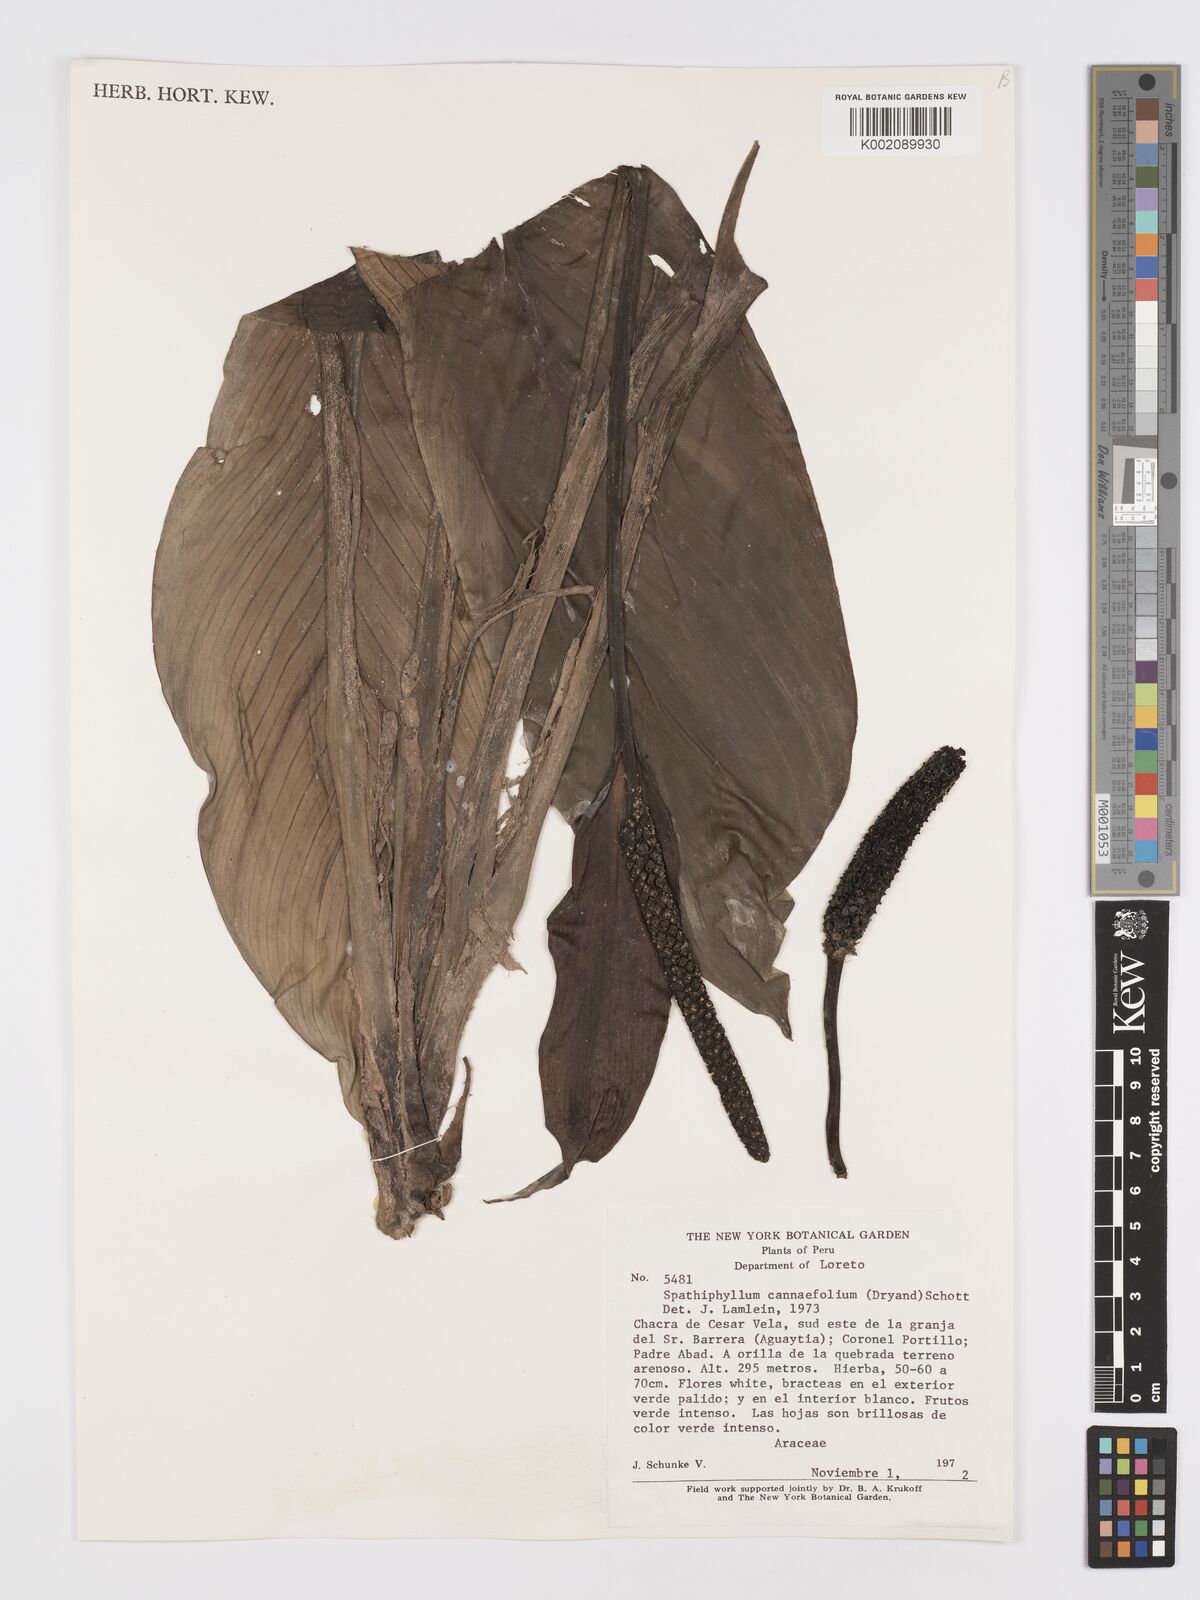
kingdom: Plantae
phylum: Tracheophyta
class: Liliopsida
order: Alismatales
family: Araceae
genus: Spathiphyllum
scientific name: Spathiphyllum cannifolium
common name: Spatheflower
